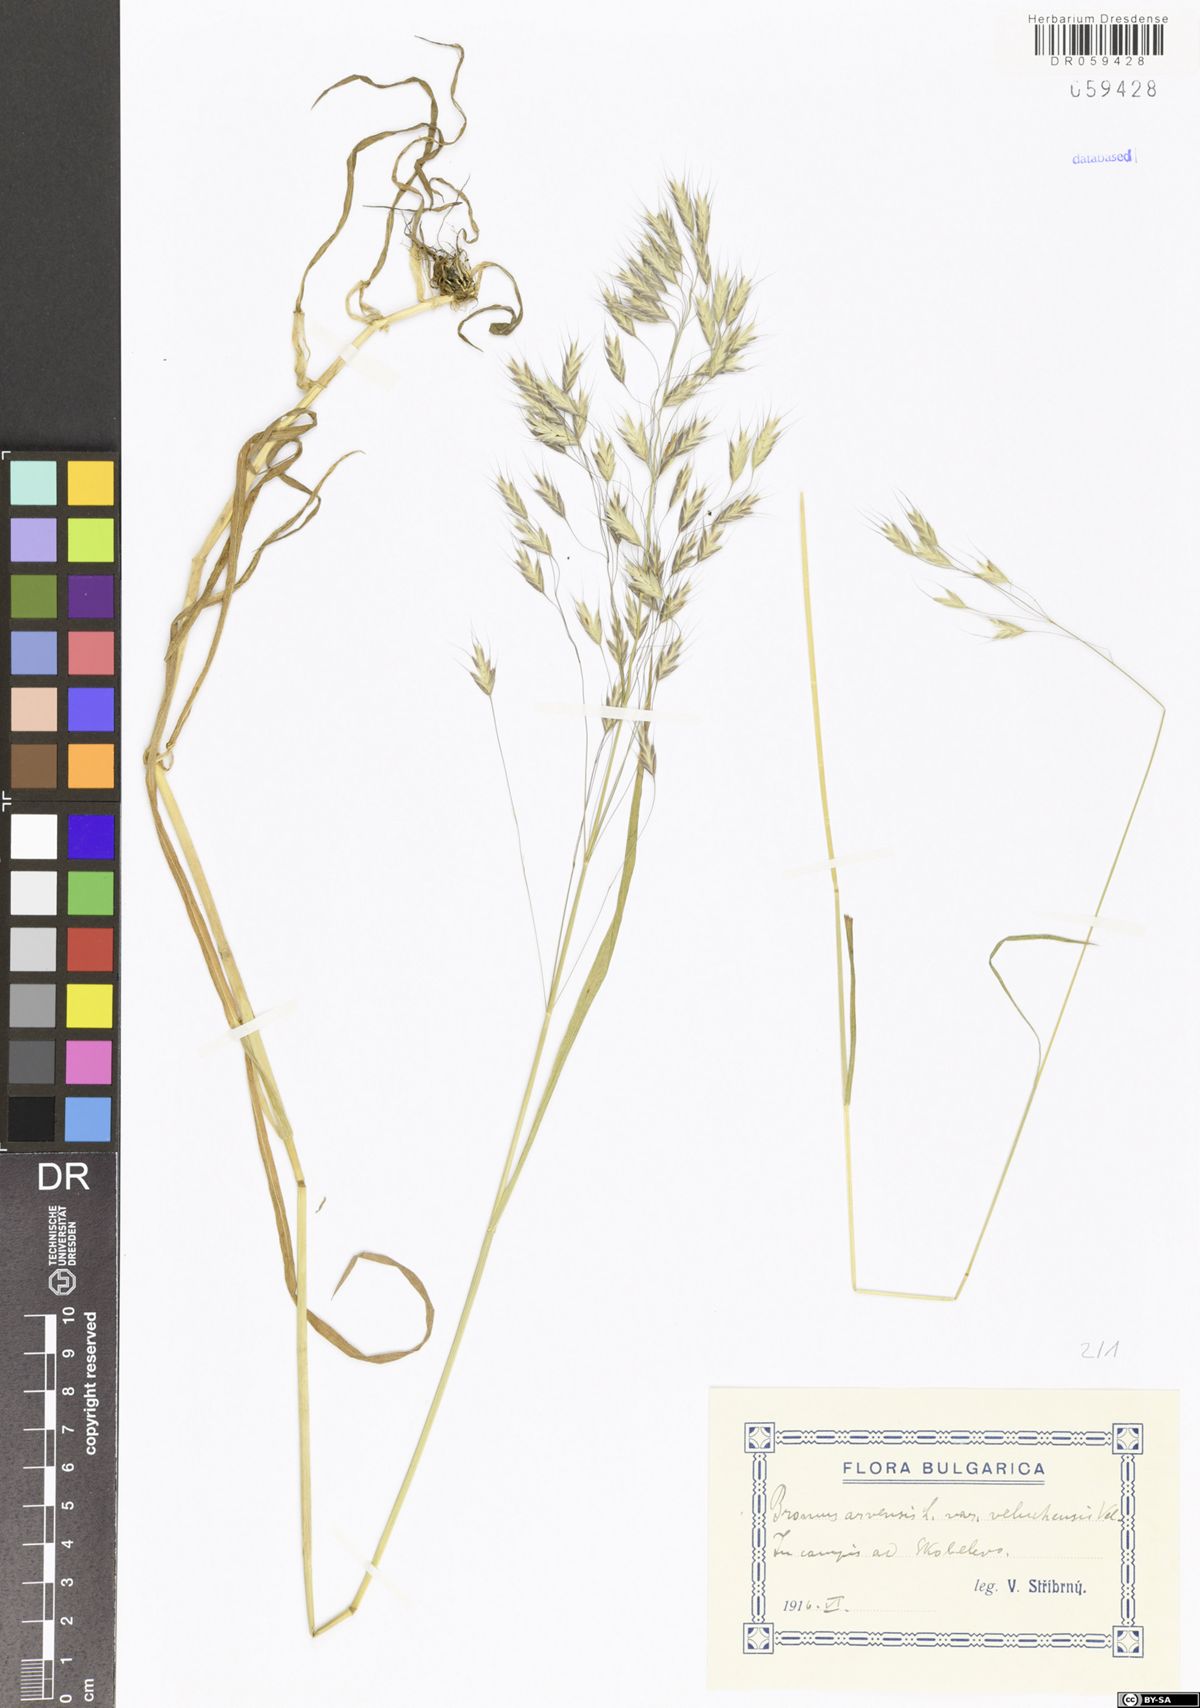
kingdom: Plantae
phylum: Tracheophyta
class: Liliopsida
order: Poales
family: Poaceae
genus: Bromus
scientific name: Bromus arvensis
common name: Field brome
